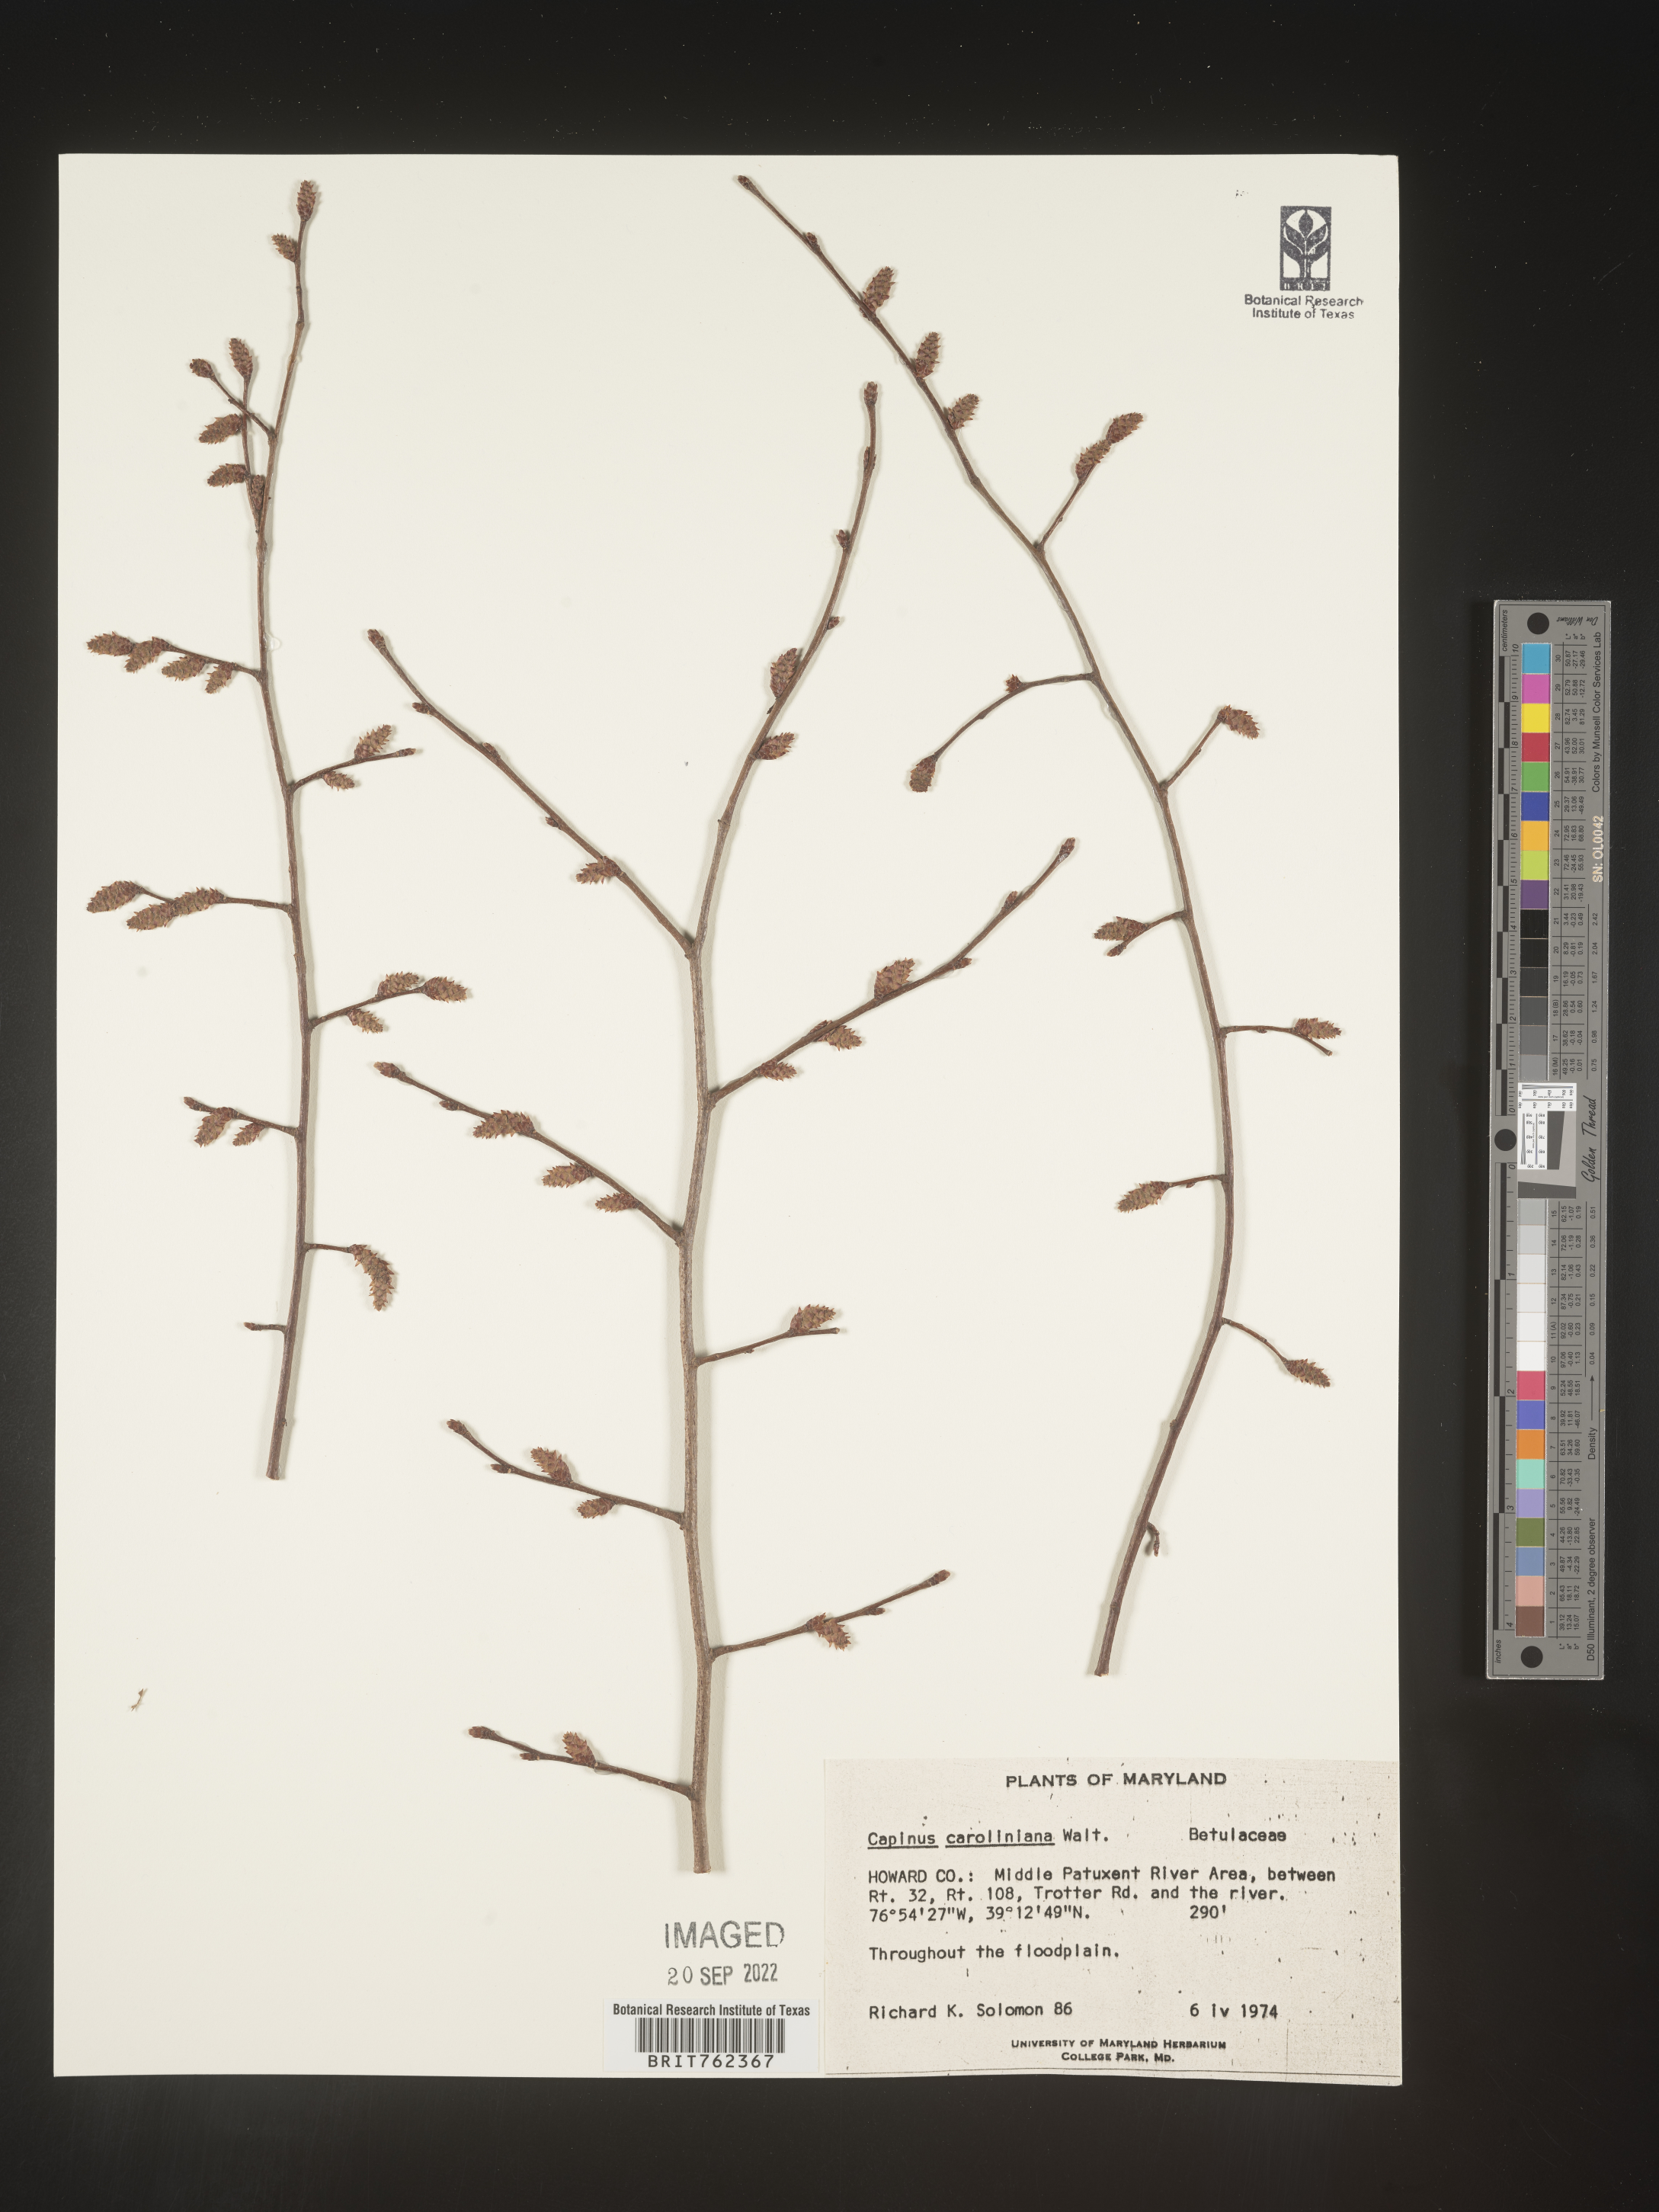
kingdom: Plantae
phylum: Tracheophyta
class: Magnoliopsida
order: Fagales
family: Betulaceae
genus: Carpinus
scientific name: Carpinus caroliniana
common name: American hornbeam
